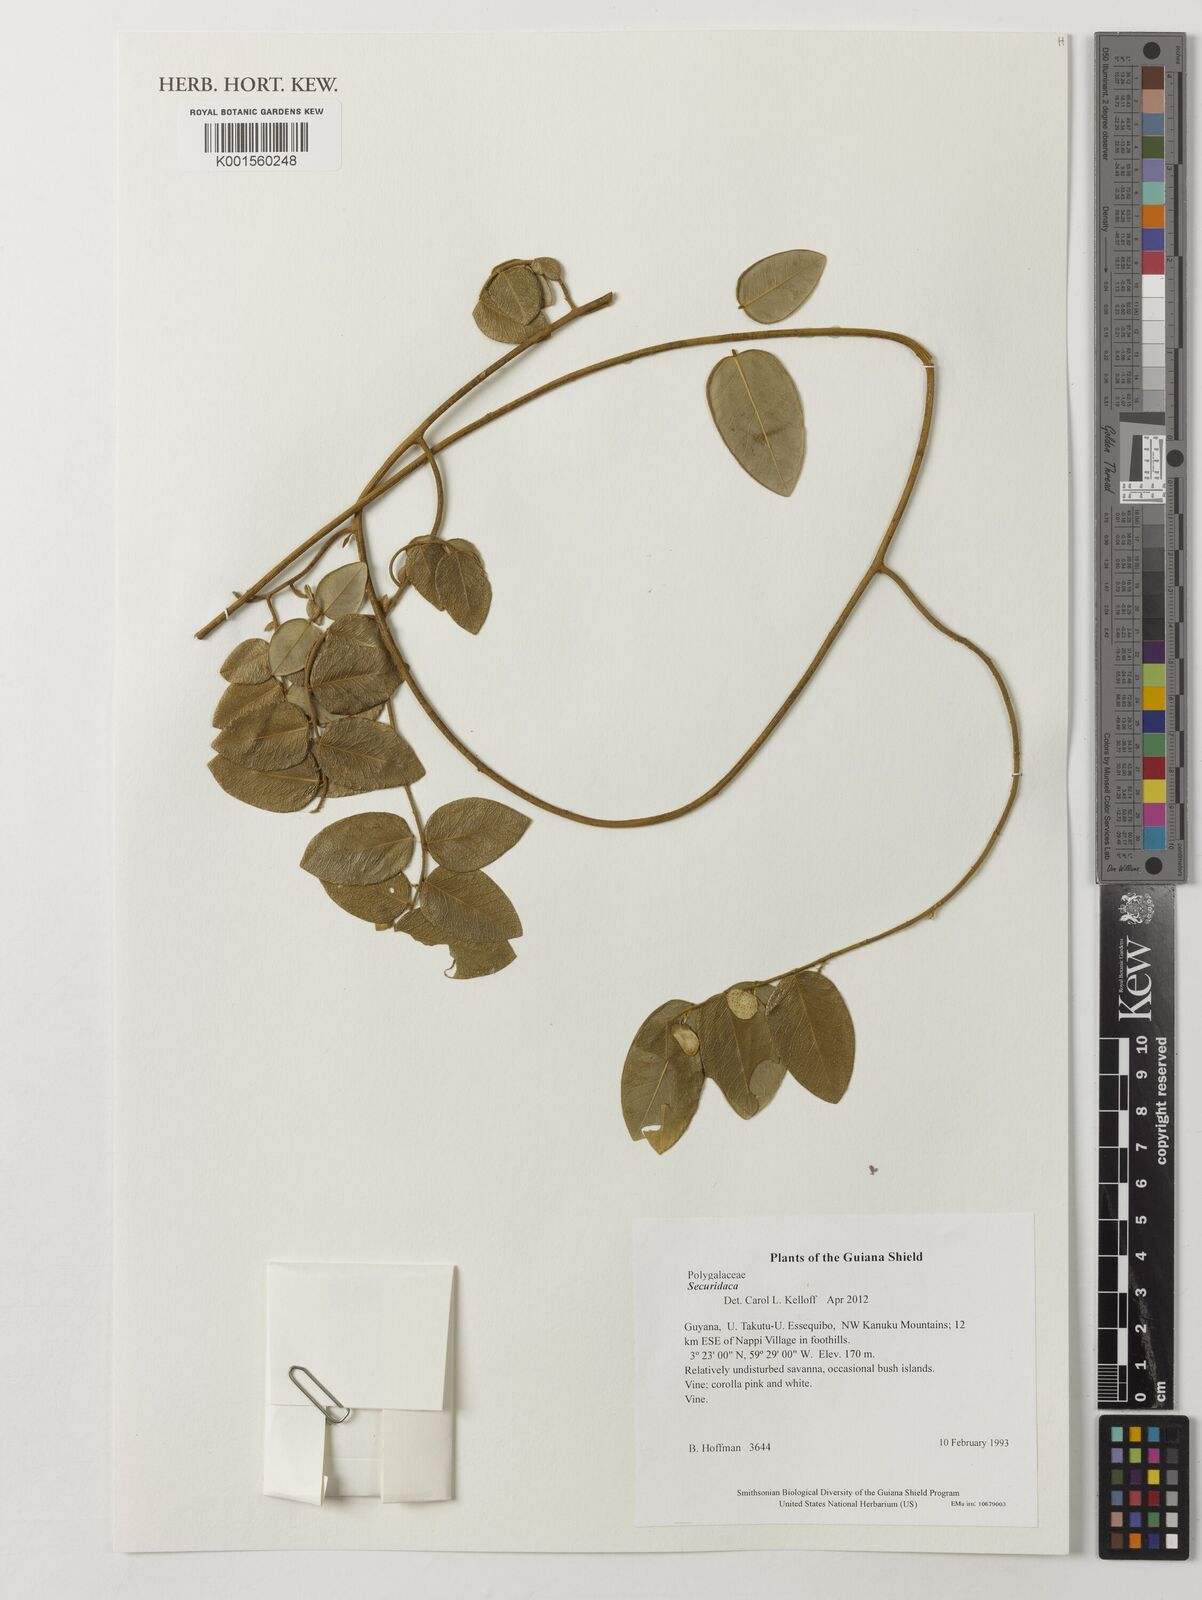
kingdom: Plantae
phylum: Tracheophyta
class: Magnoliopsida
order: Fabales
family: Polygalaceae
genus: Securidaca
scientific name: Securidaca
